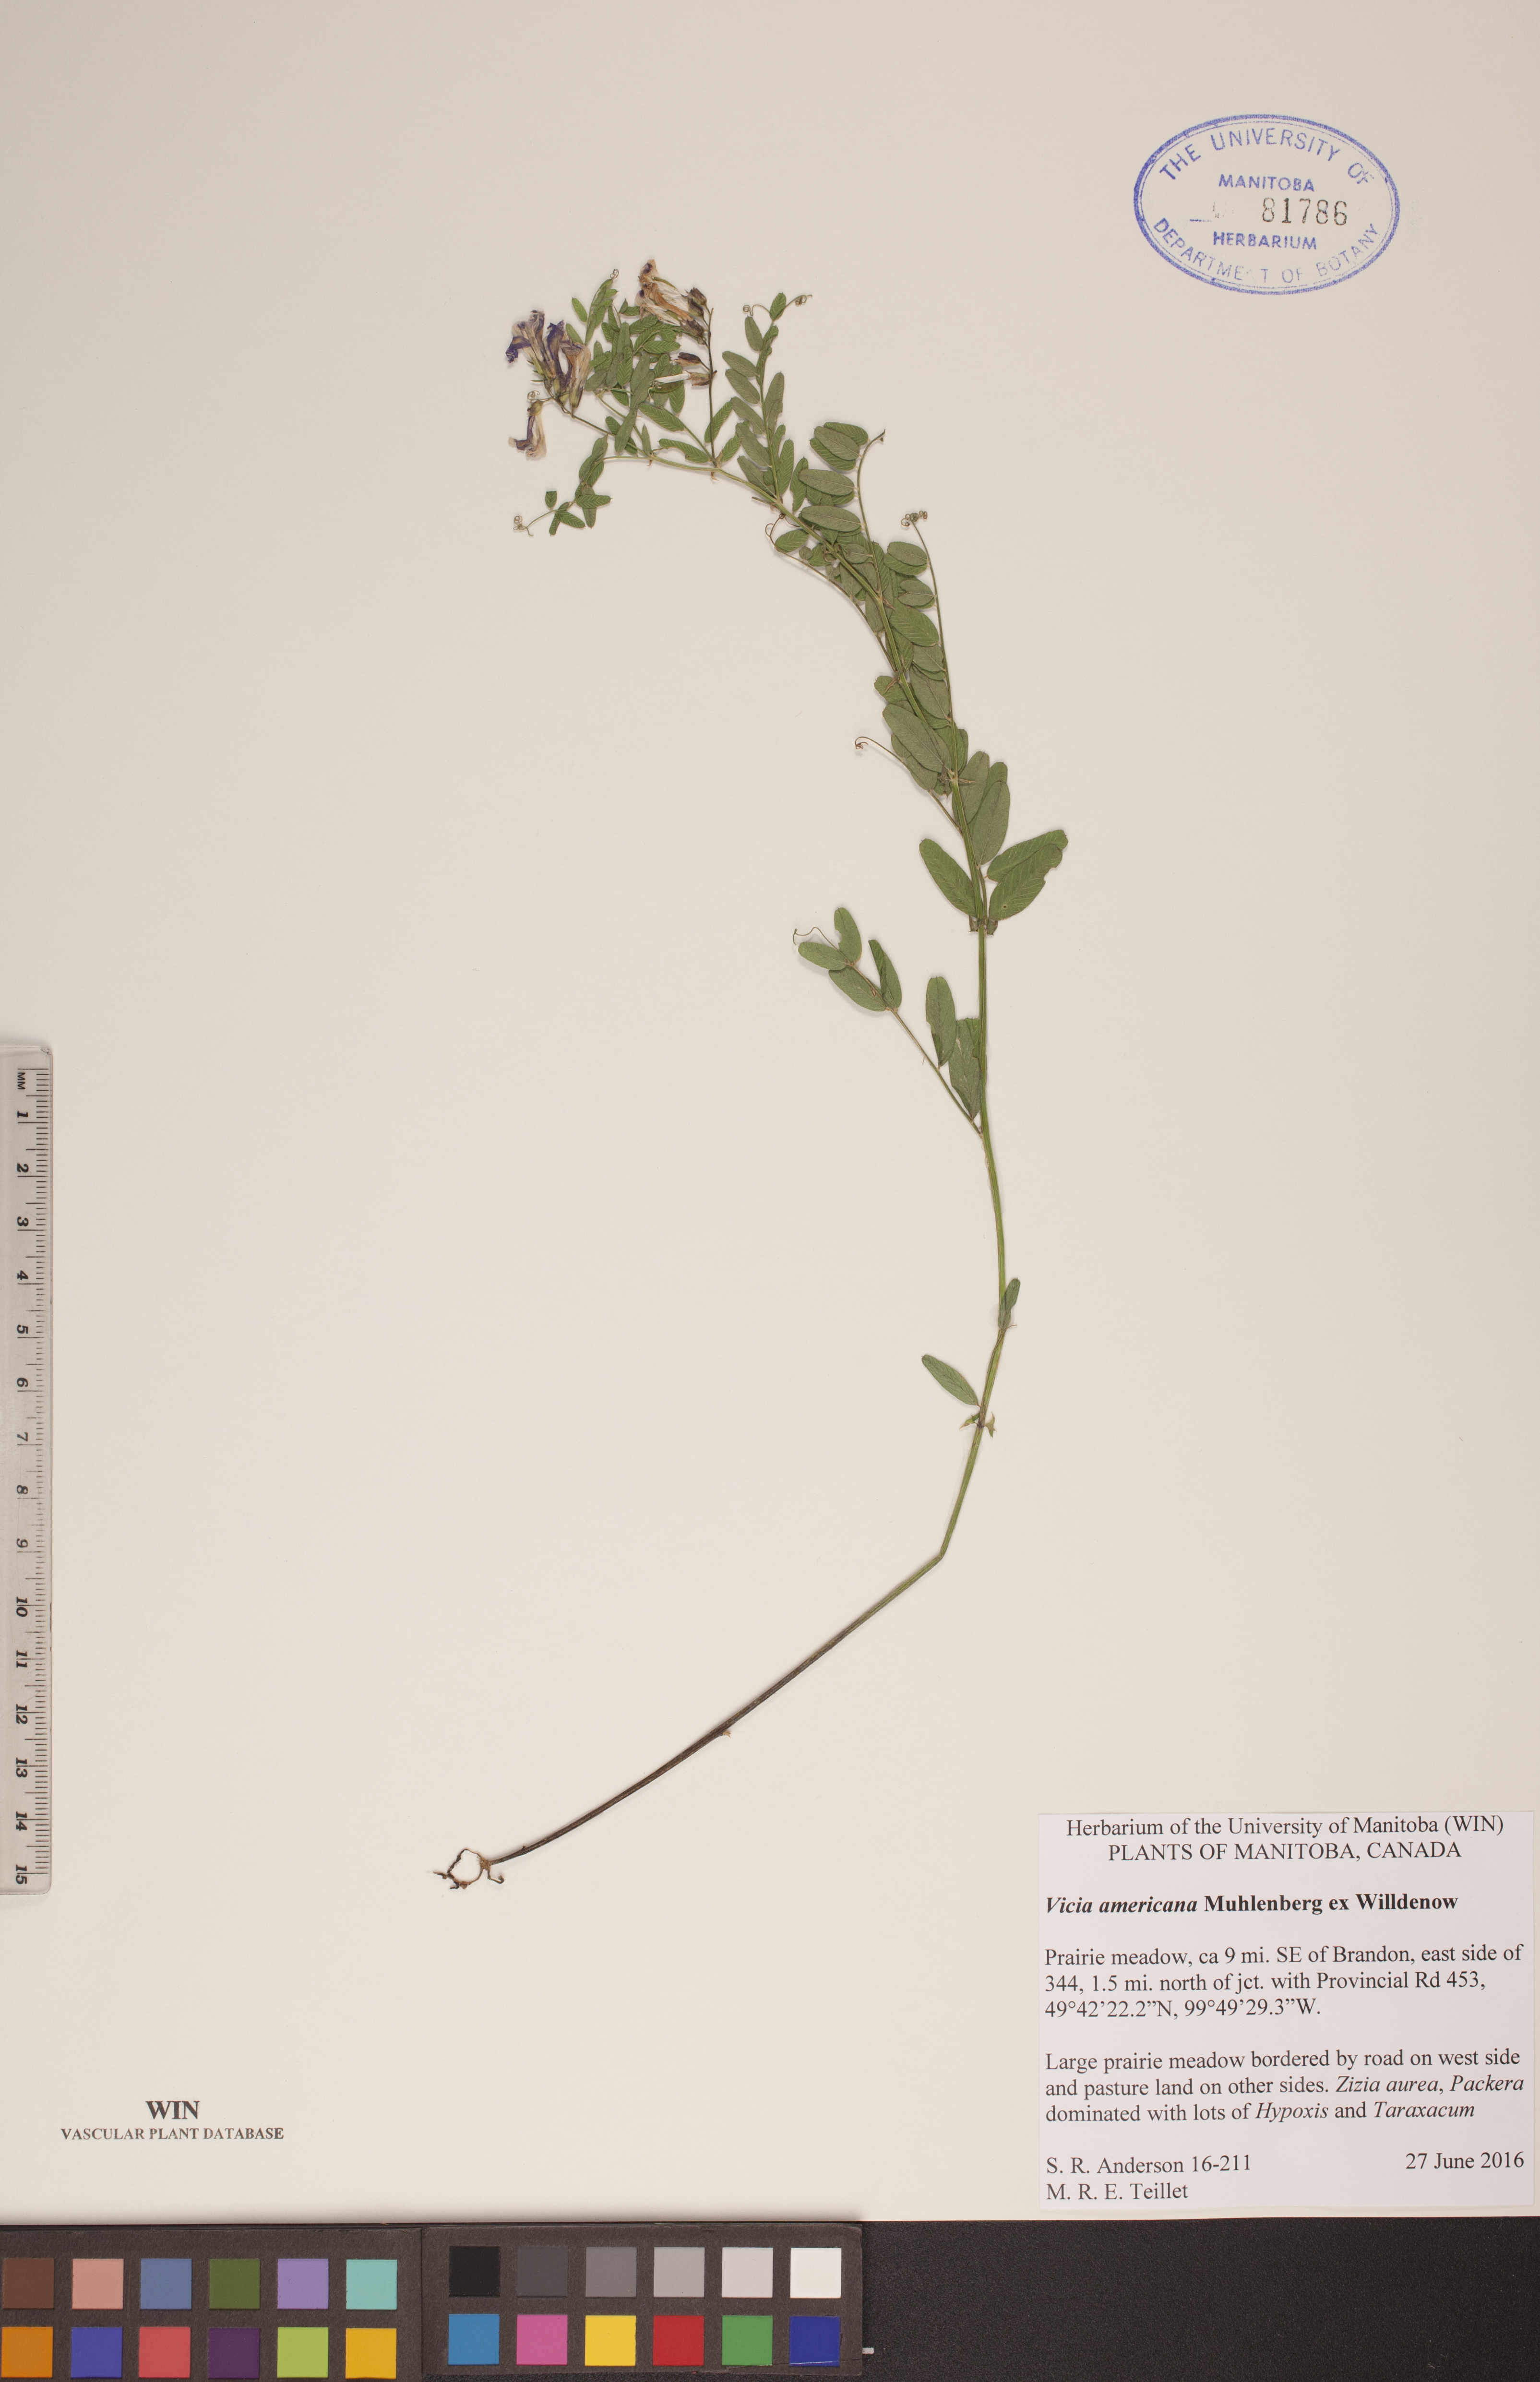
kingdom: Plantae
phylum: Tracheophyta
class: Magnoliopsida
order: Fabales
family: Fabaceae
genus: Vicia
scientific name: Vicia americana
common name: American vetch
